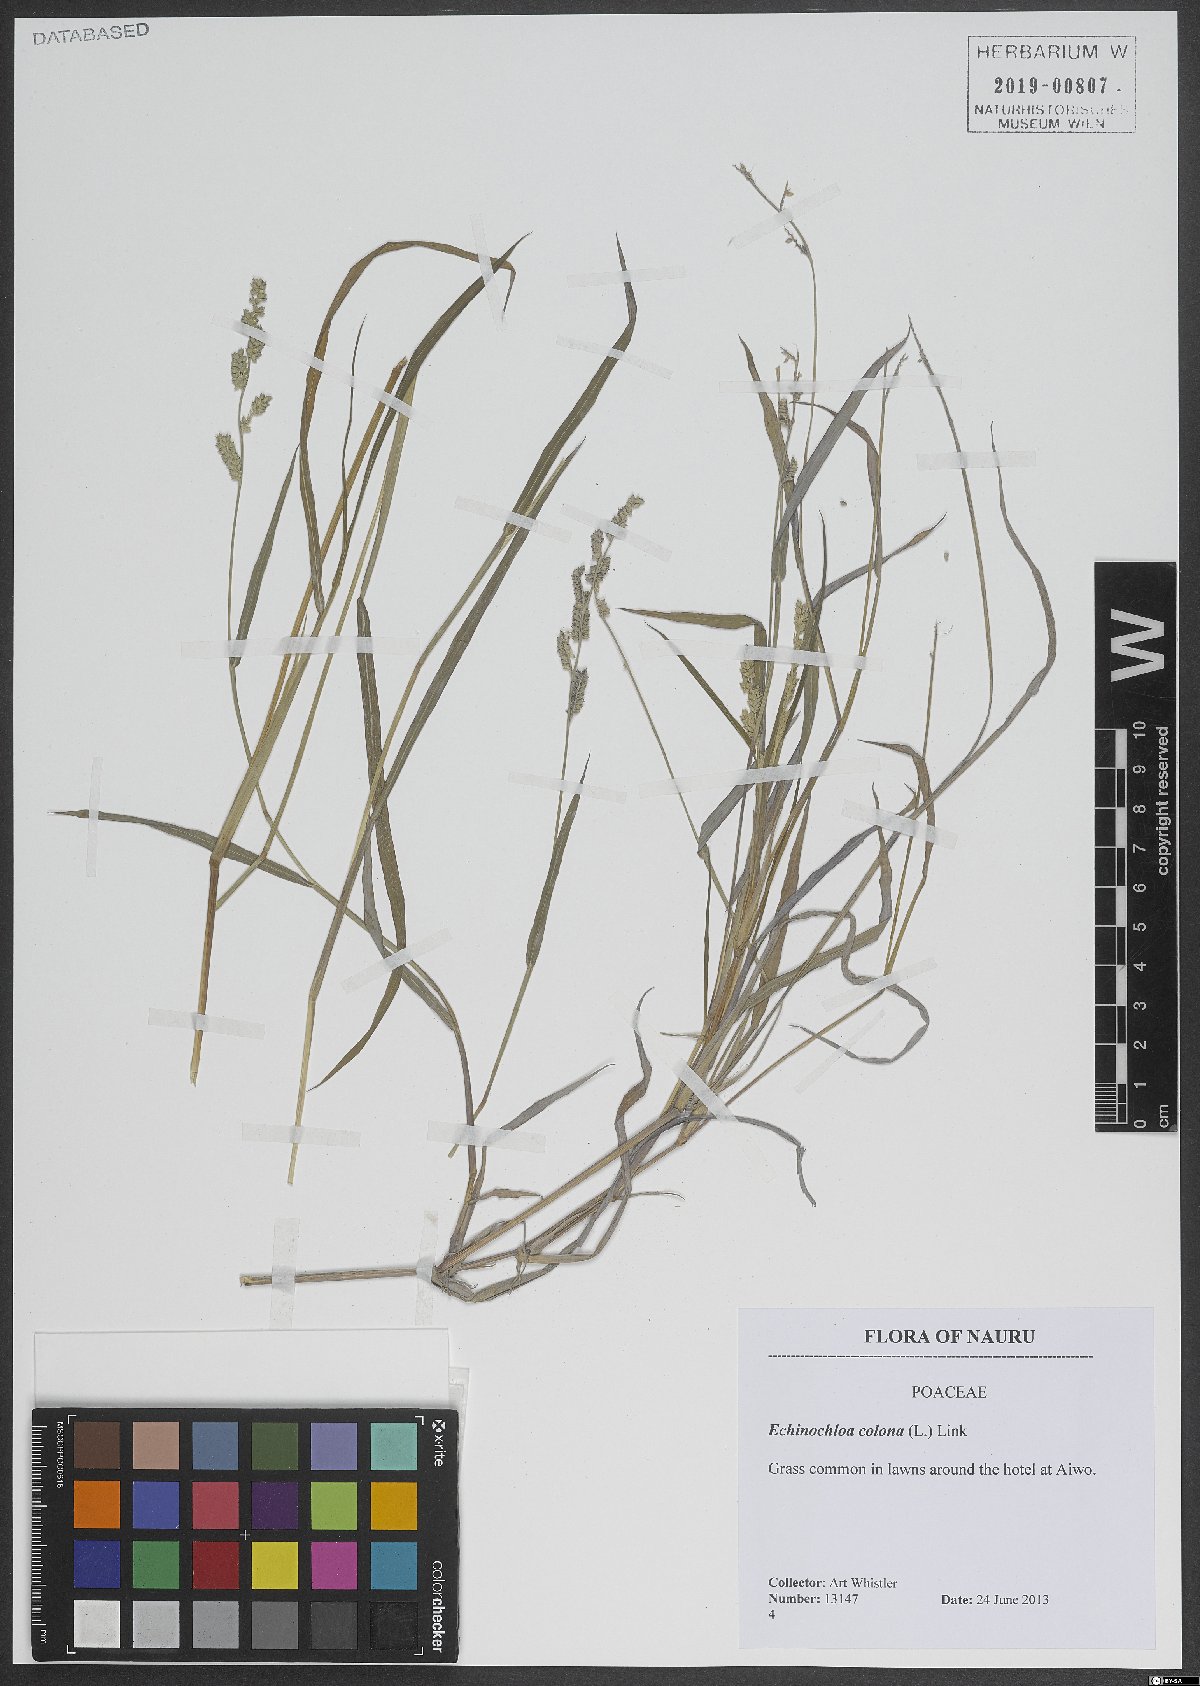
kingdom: Plantae
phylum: Tracheophyta
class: Liliopsida
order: Poales
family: Poaceae
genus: Echinochloa
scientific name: Echinochloa colonum
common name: Jungle rice
